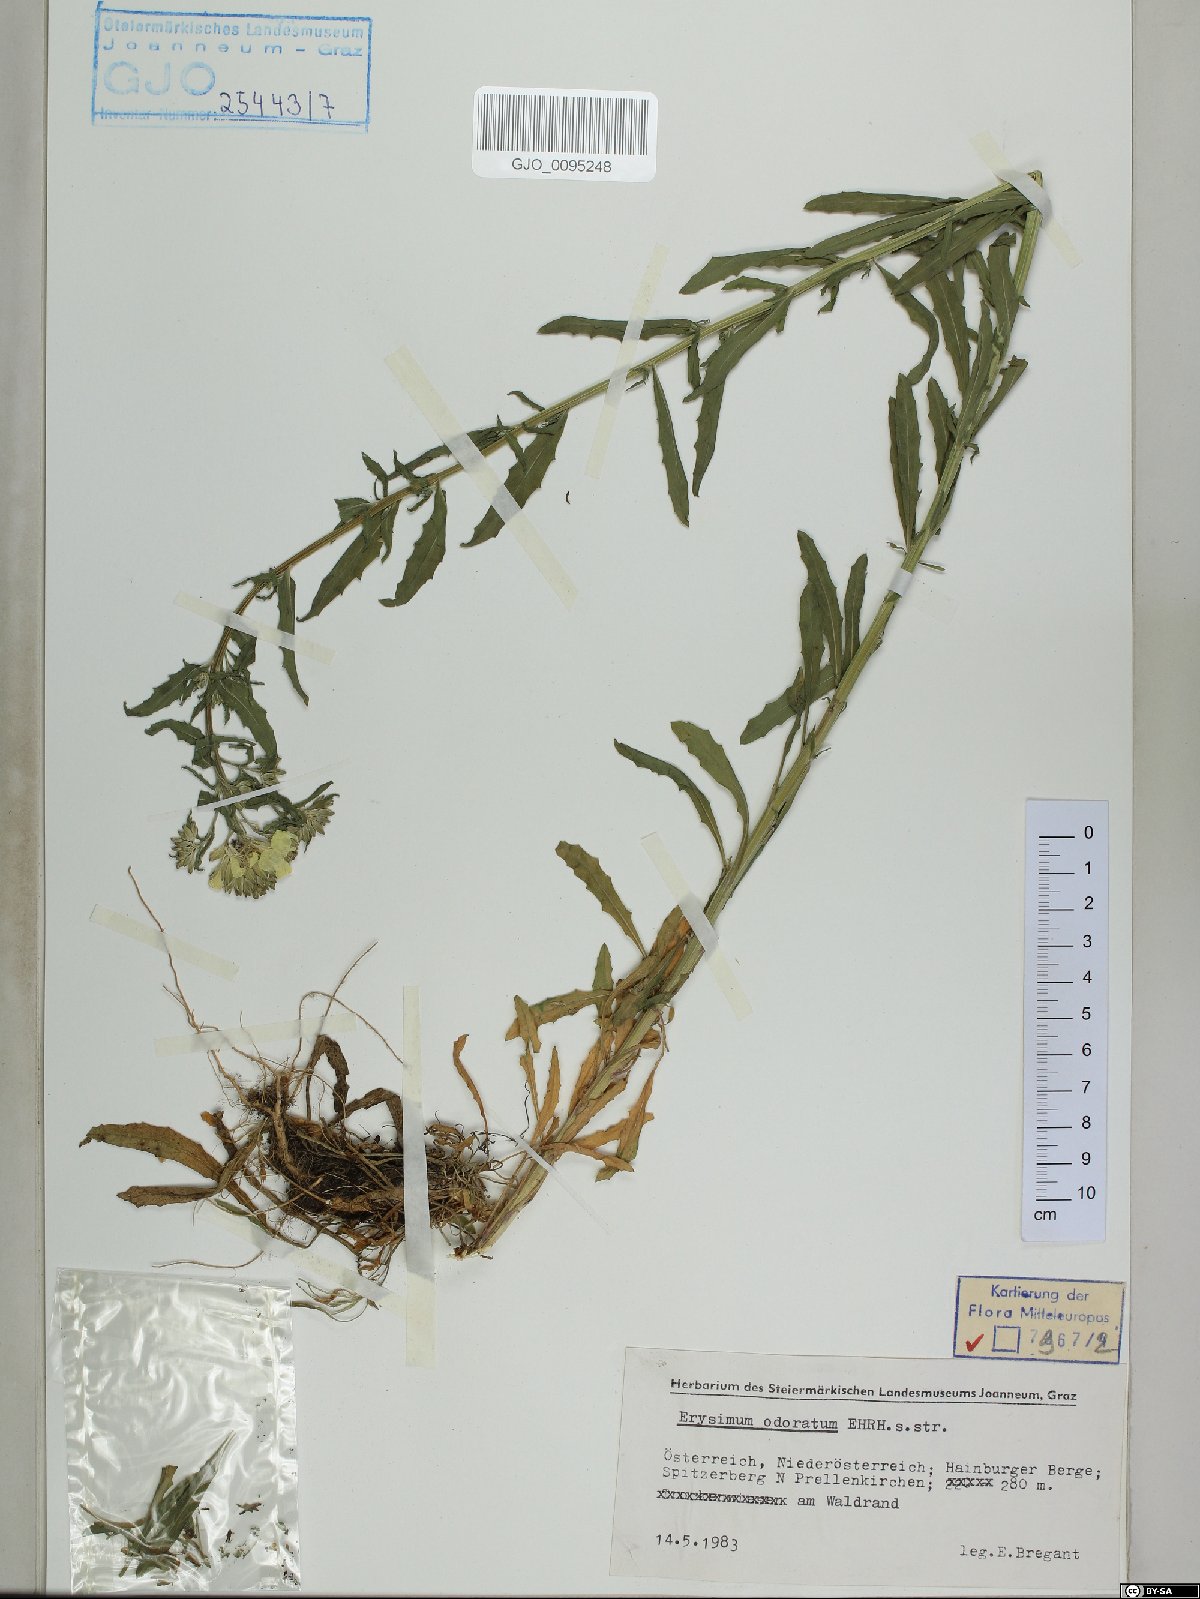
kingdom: Plantae
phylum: Tracheophyta
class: Magnoliopsida
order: Brassicales
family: Brassicaceae
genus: Erysimum
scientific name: Erysimum odoratum
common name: Smelly wallflower
